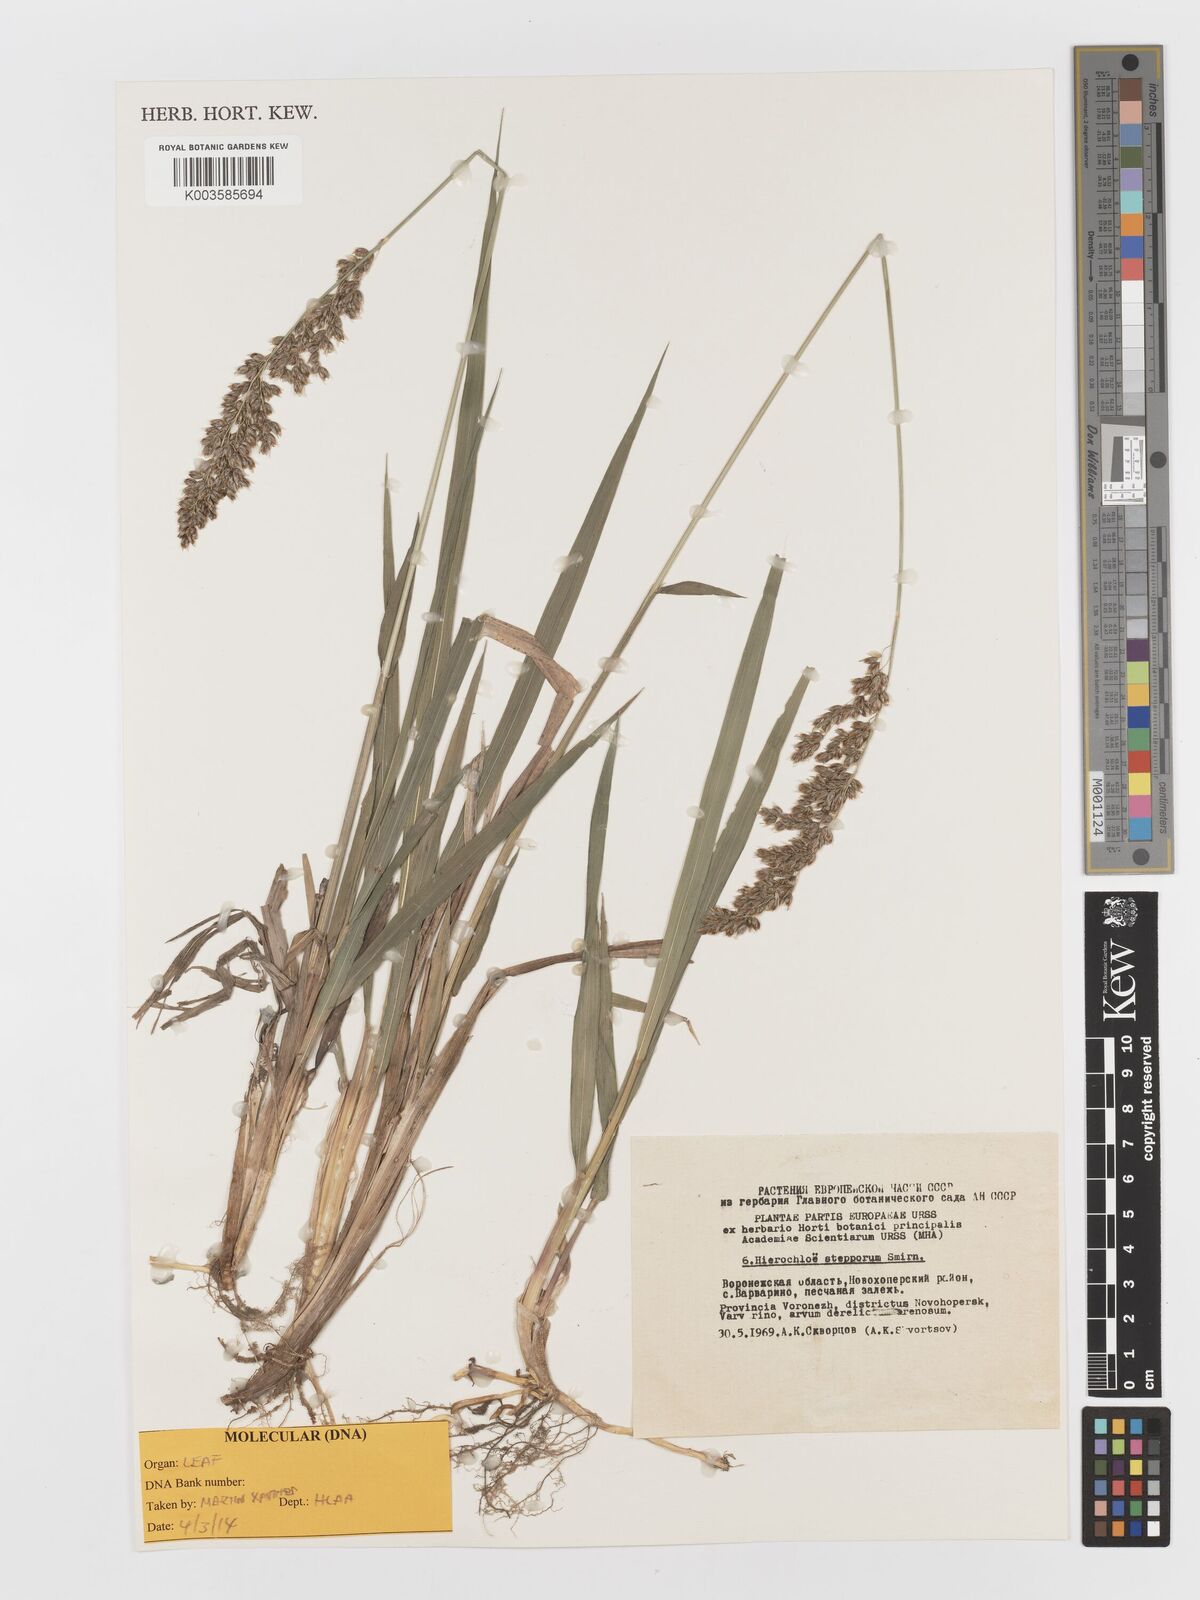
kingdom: Plantae
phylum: Tracheophyta
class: Liliopsida
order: Poales
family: Poaceae
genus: Anthoxanthum
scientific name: Anthoxanthum repens
